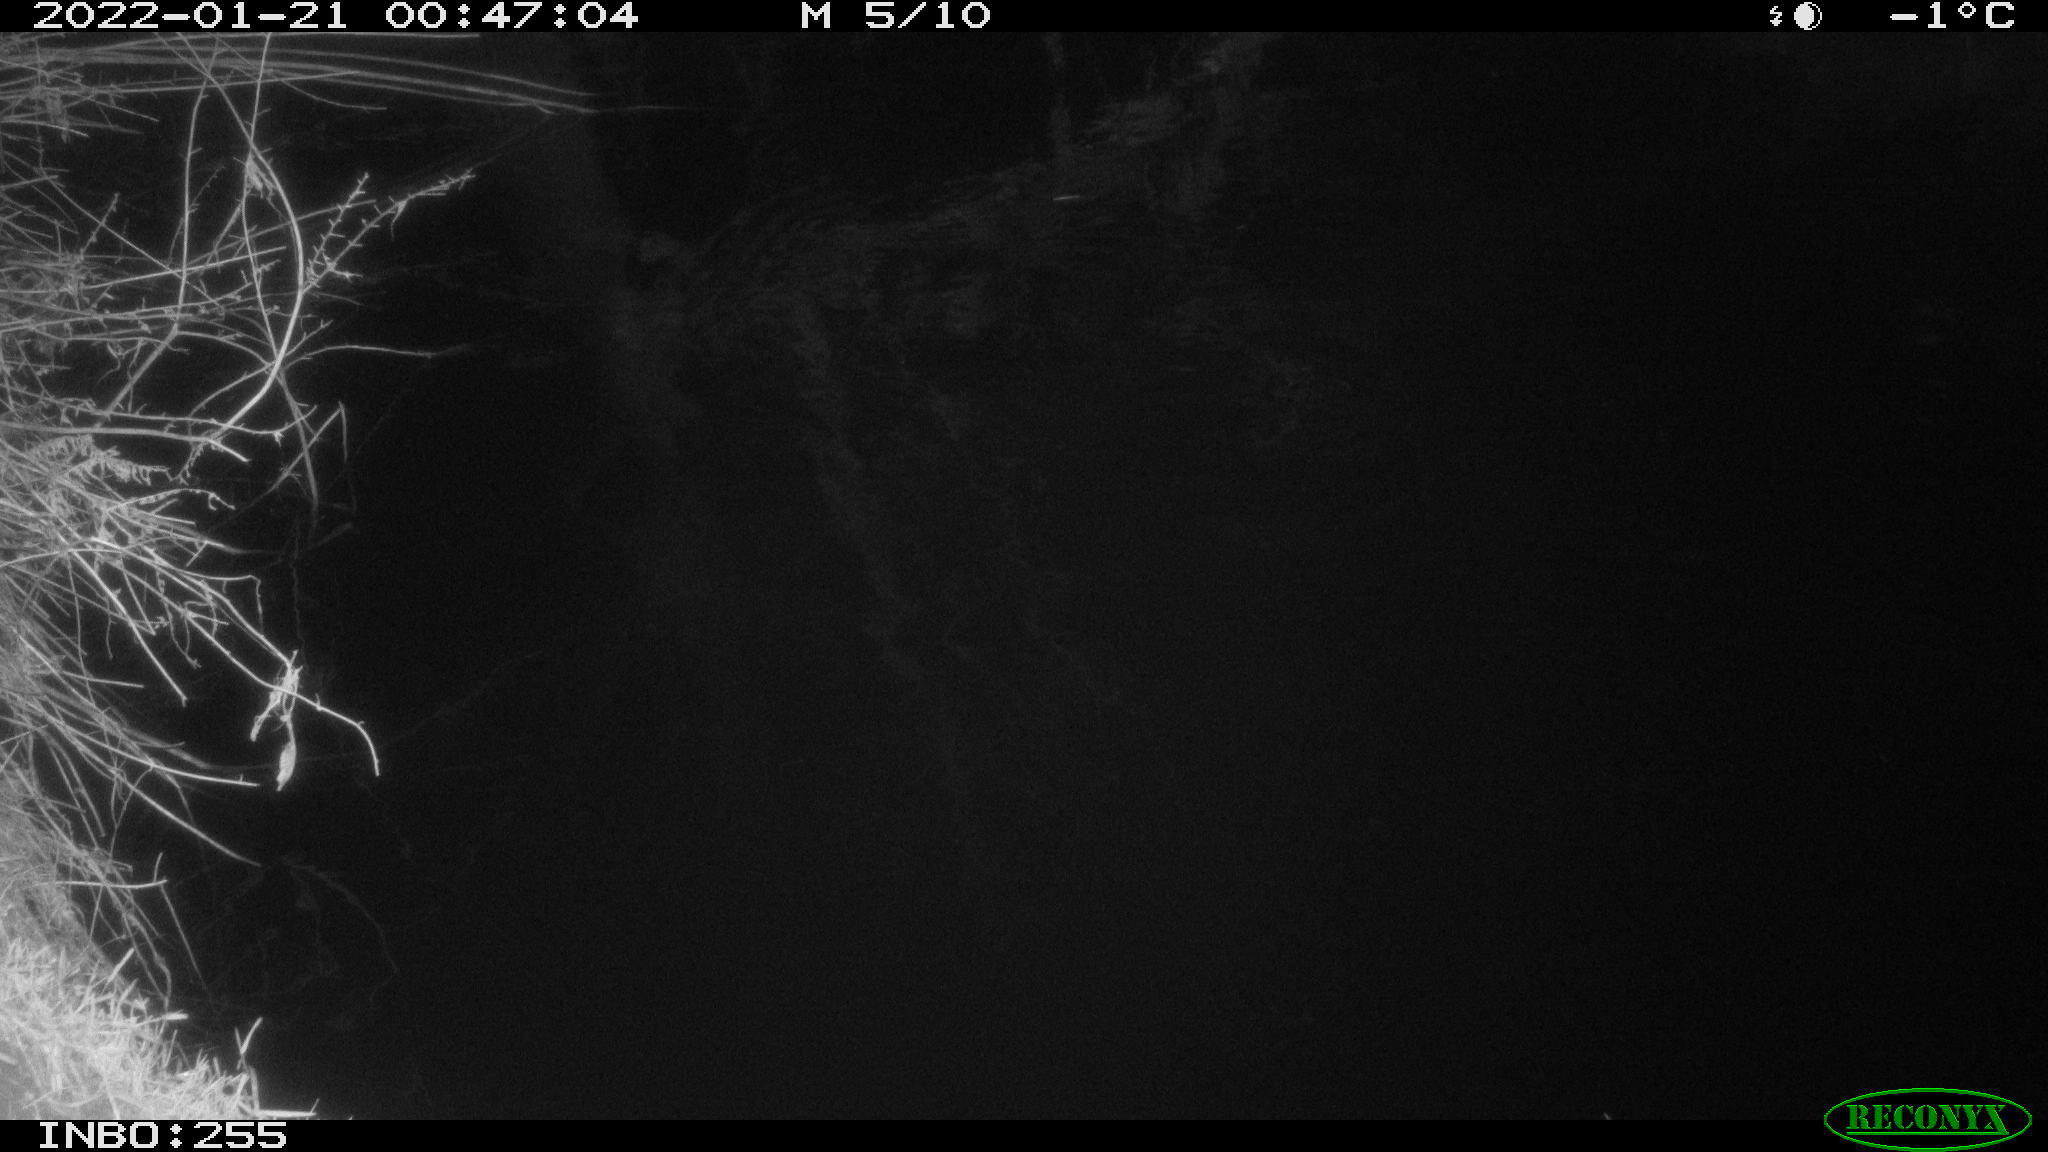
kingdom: Animalia
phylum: Chordata
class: Aves
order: Anseriformes
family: Anatidae
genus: Anas
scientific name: Anas
